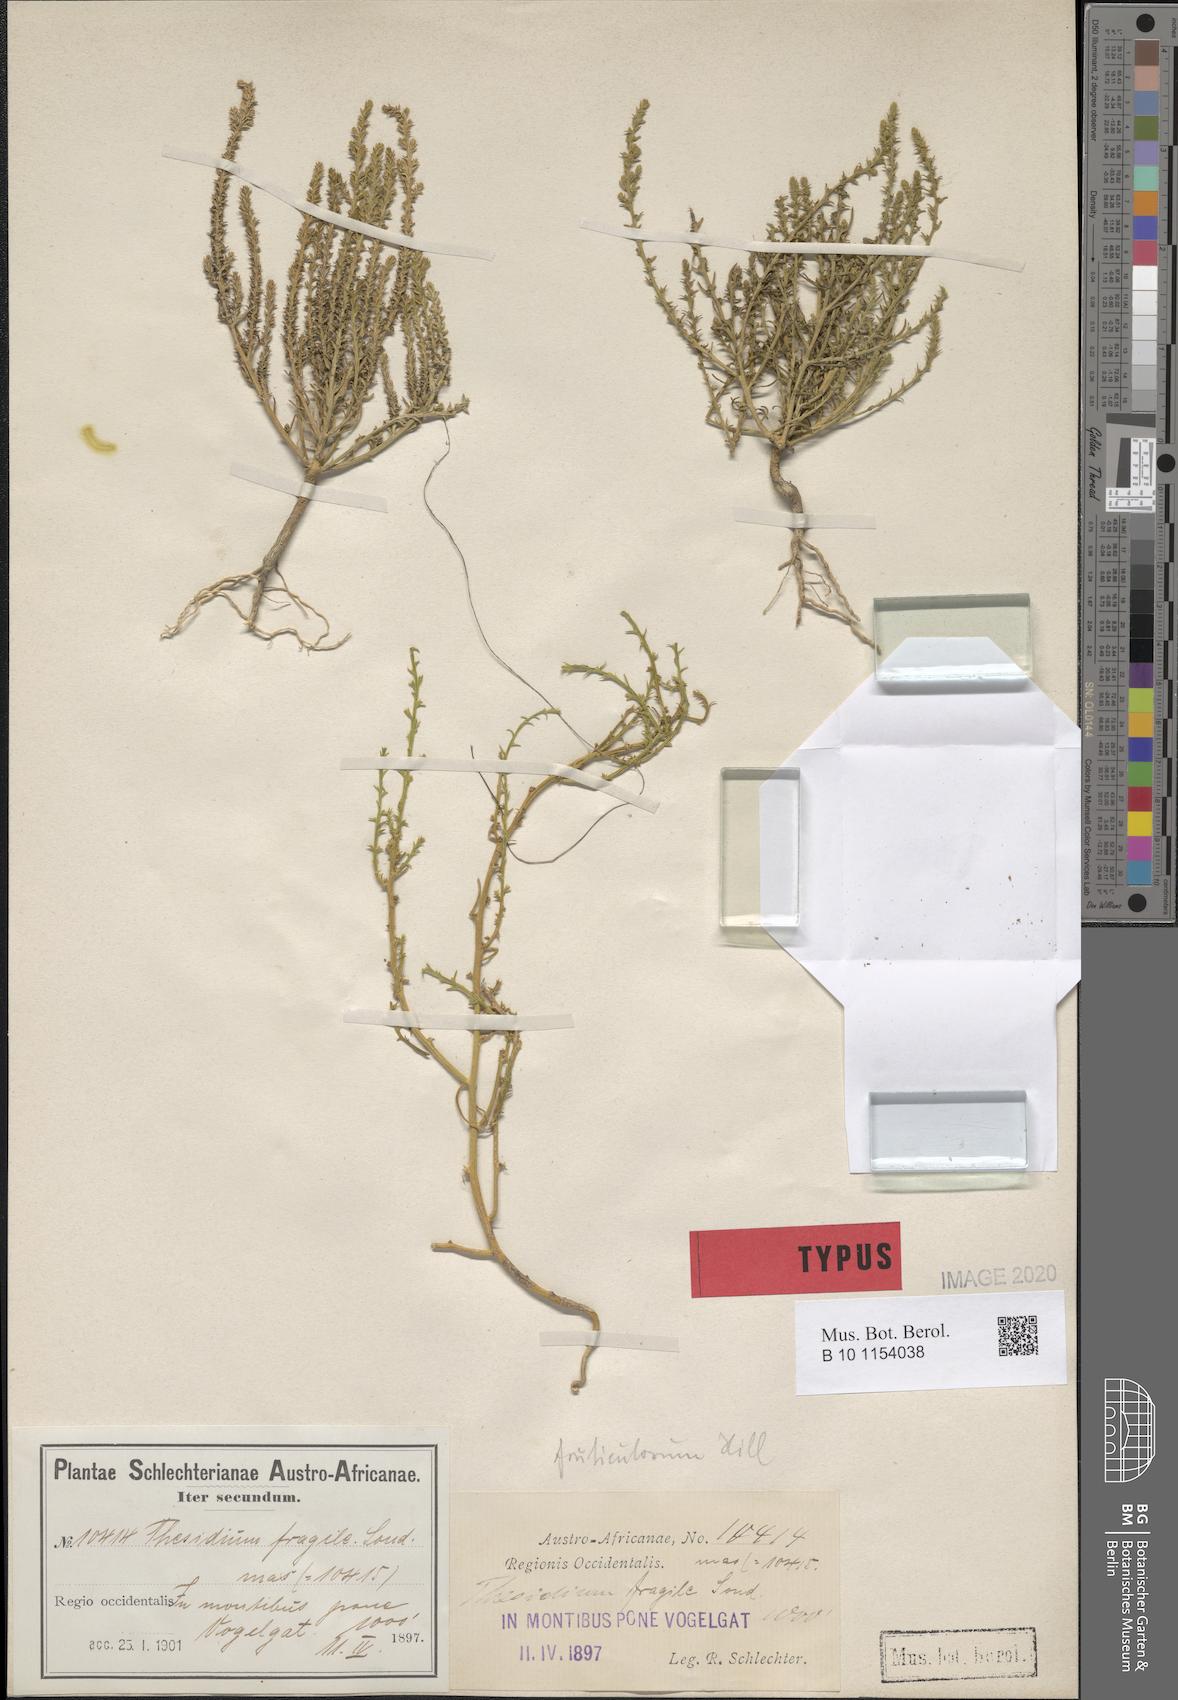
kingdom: Plantae
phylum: Tracheophyta
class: Magnoliopsida
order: Santalales
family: Thesiaceae
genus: Thesium
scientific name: Thesium fruticulosum
